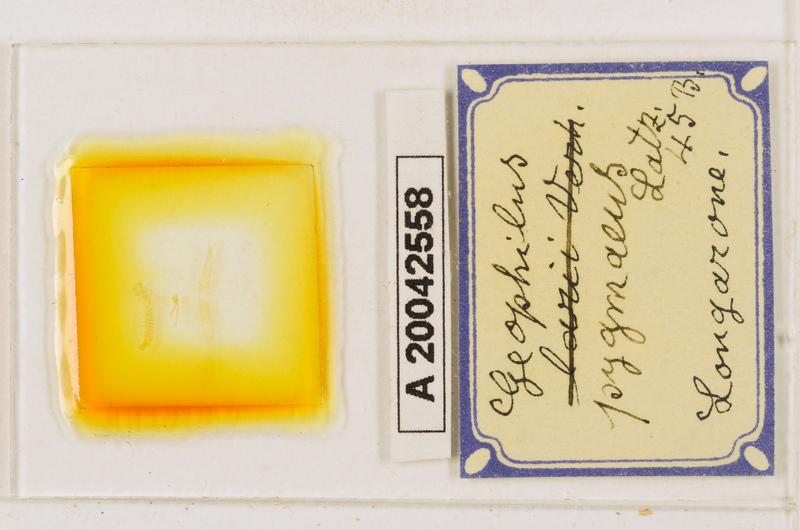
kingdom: Animalia
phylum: Arthropoda
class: Chilopoda
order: Geophilomorpha
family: Geophilidae
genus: Geophilus
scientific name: Geophilus pygmaeus
